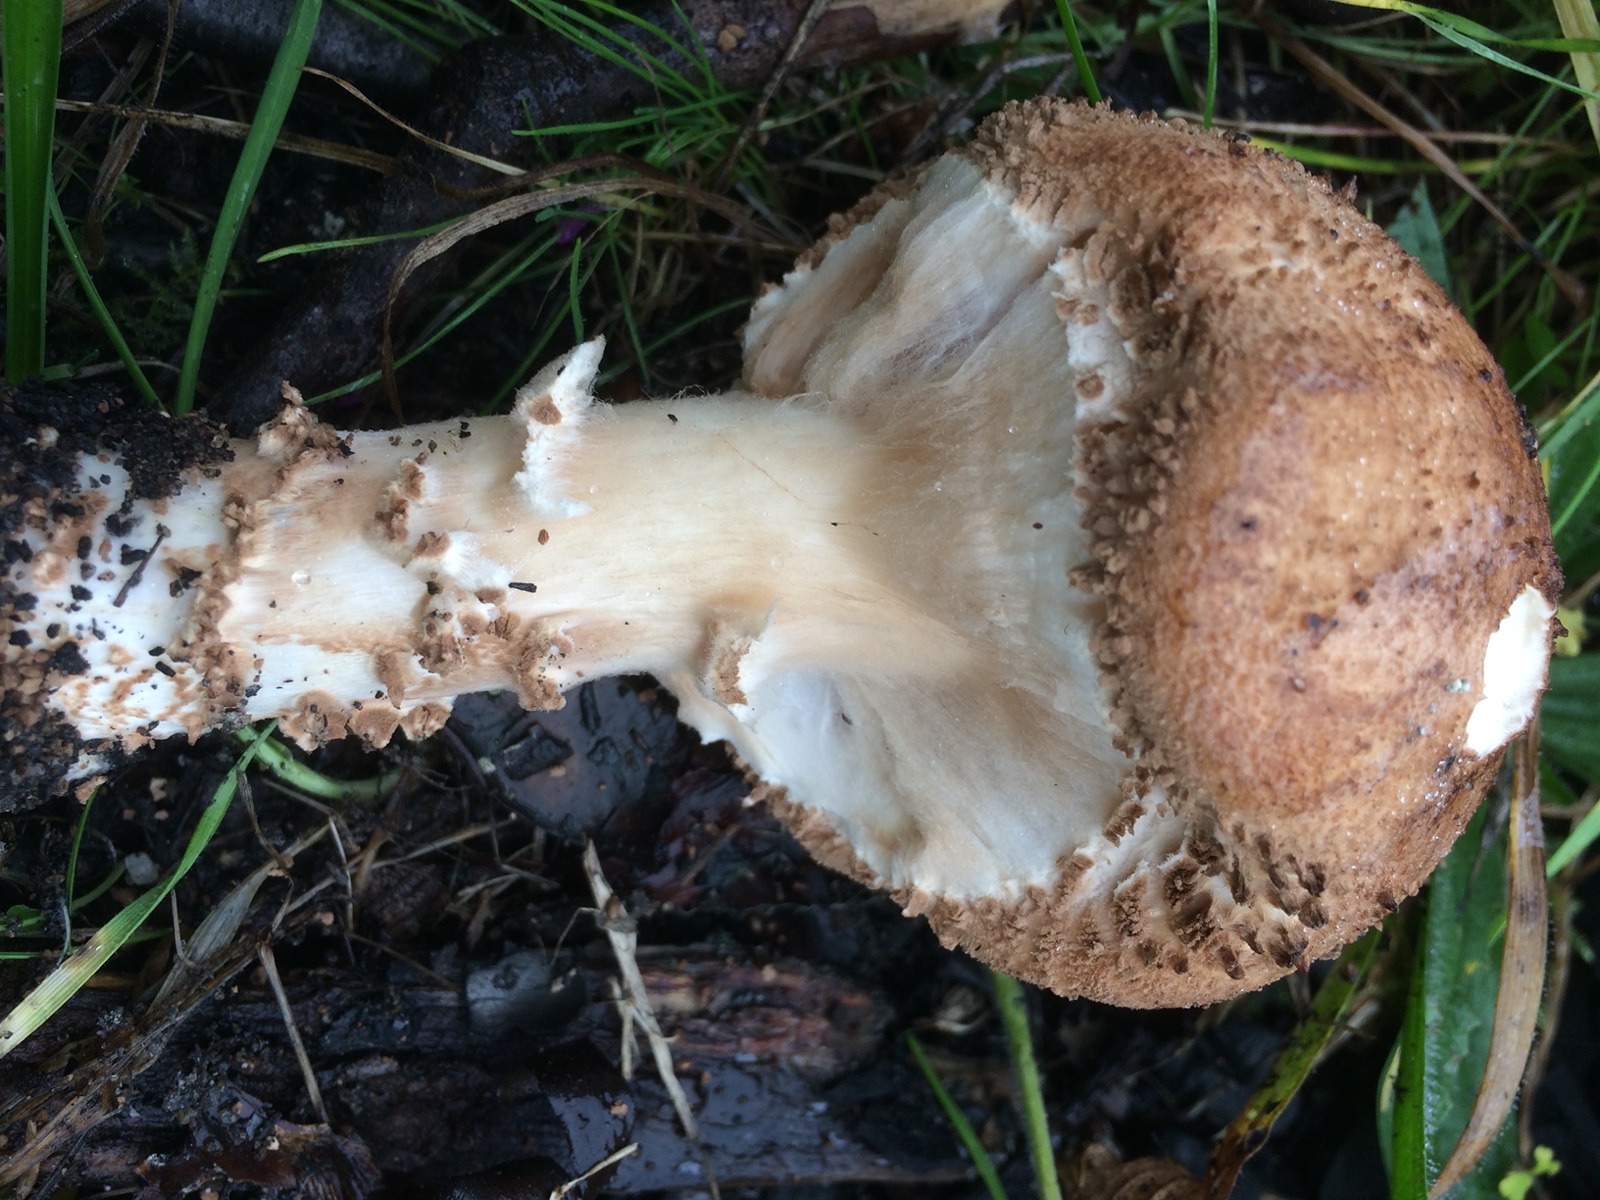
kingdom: Fungi
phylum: Basidiomycota
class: Agaricomycetes
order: Agaricales
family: Agaricaceae
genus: Echinoderma
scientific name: Echinoderma asperum
